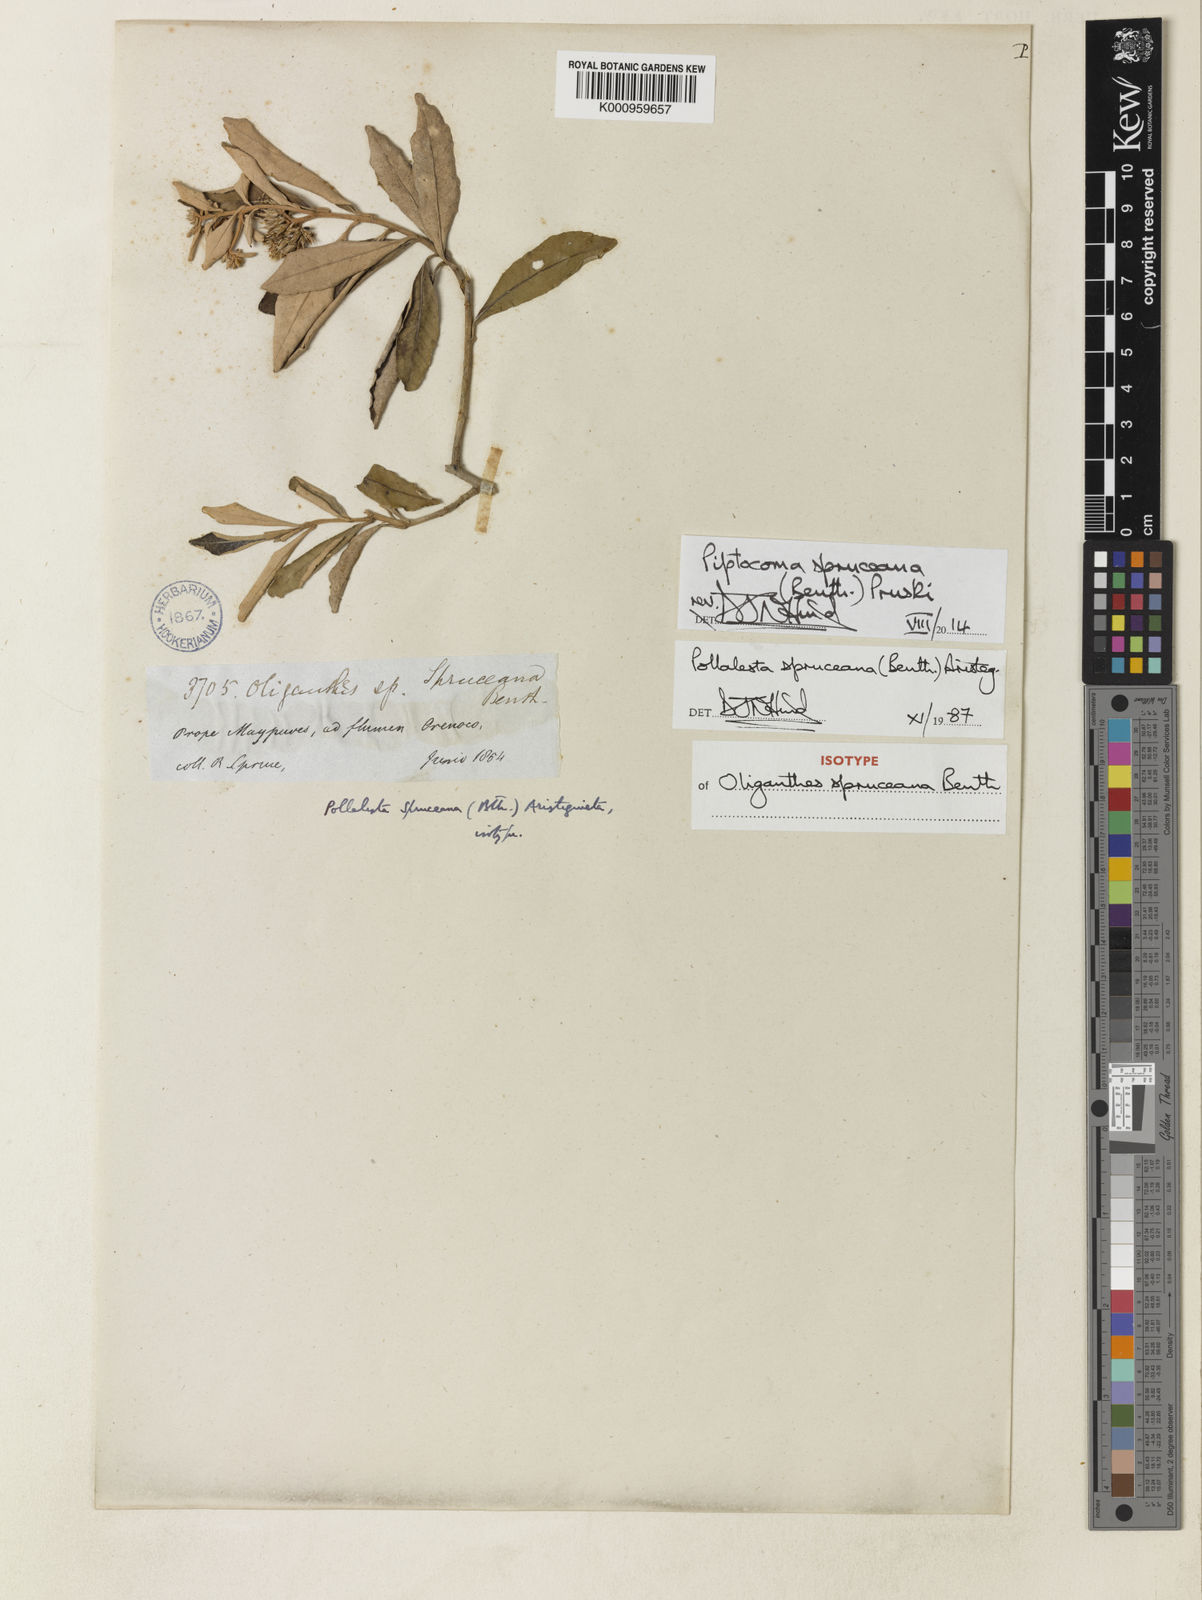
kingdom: Plantae
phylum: Tracheophyta
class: Magnoliopsida
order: Asterales
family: Asteraceae
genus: Piptocoma
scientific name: Piptocoma spruceana
